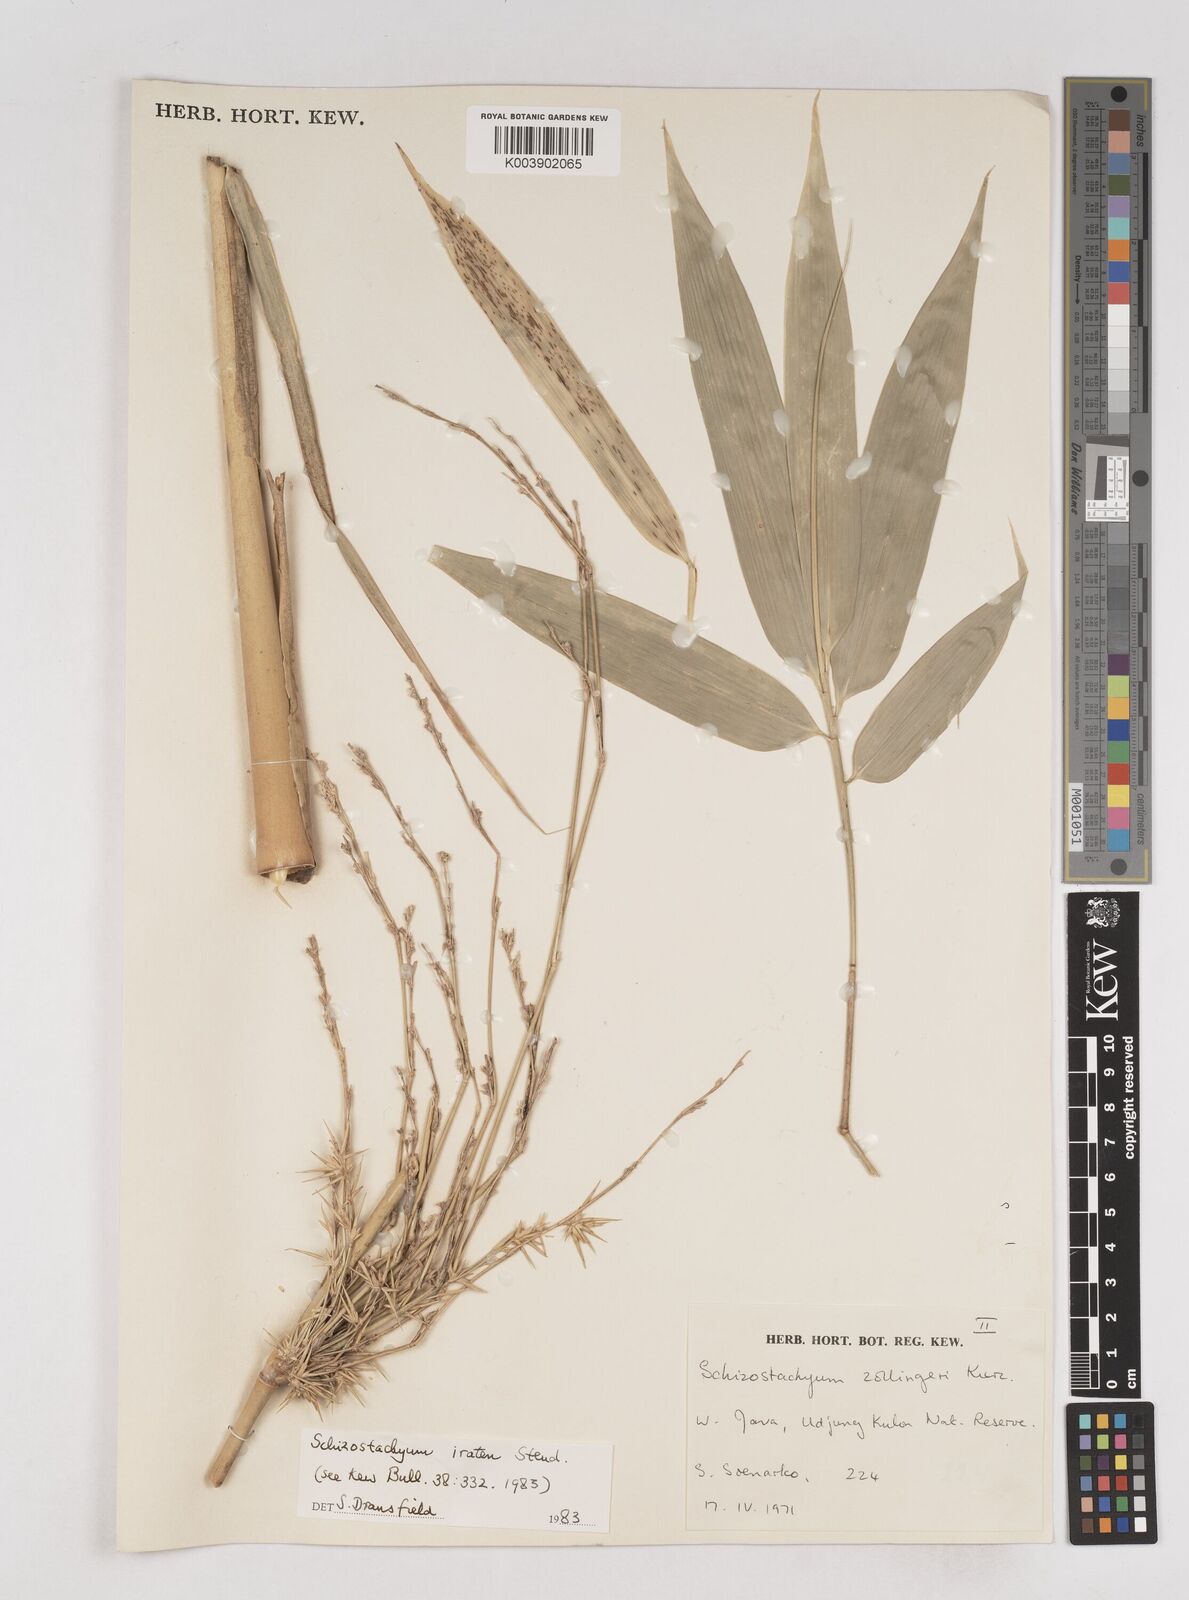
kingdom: Plantae
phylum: Tracheophyta
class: Liliopsida
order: Poales
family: Poaceae
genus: Schizostachyum
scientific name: Schizostachyum iraten
